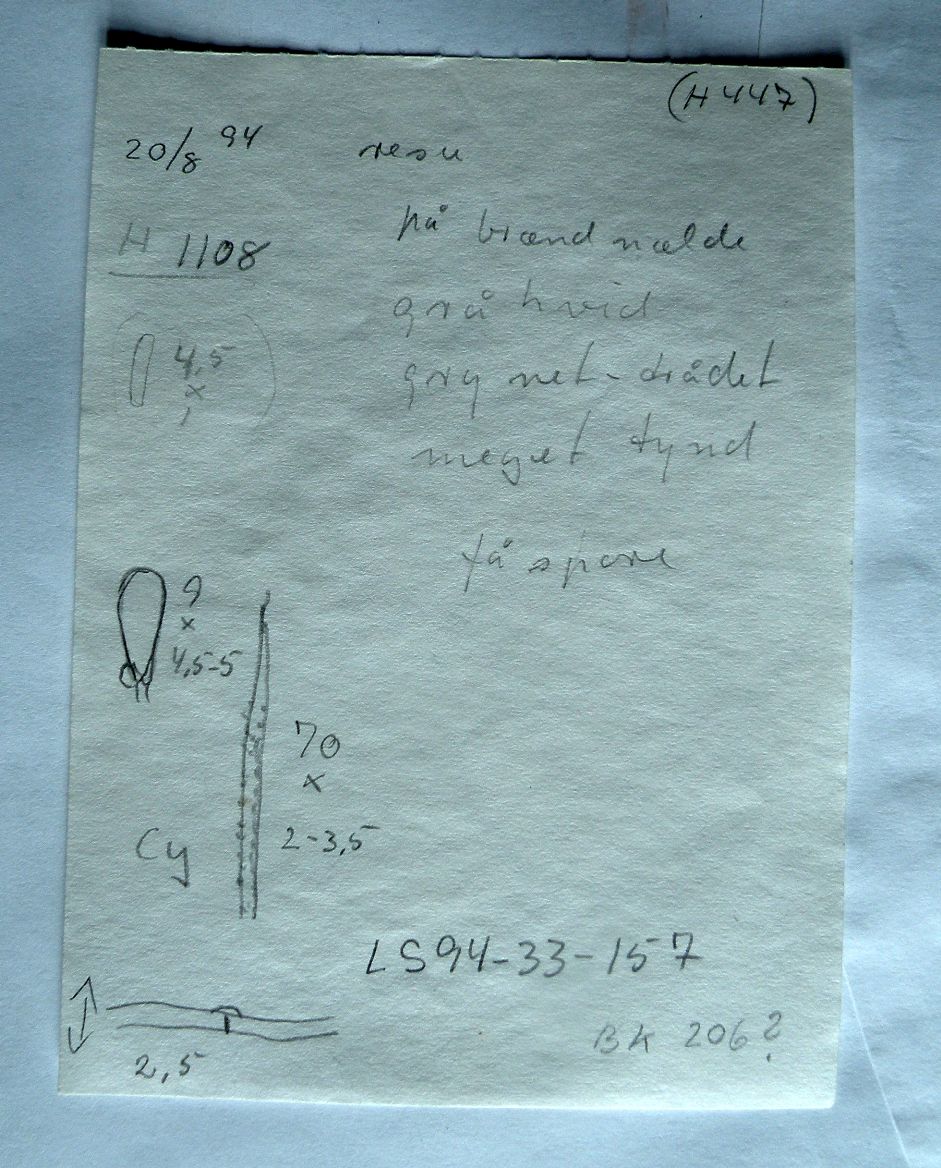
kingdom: Fungi
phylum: Basidiomycota
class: Agaricomycetes
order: Trechisporales
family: Hydnodontaceae
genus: Subulicystidium
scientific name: Subulicystidium longisporum
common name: almindelig pigtrådshinde
